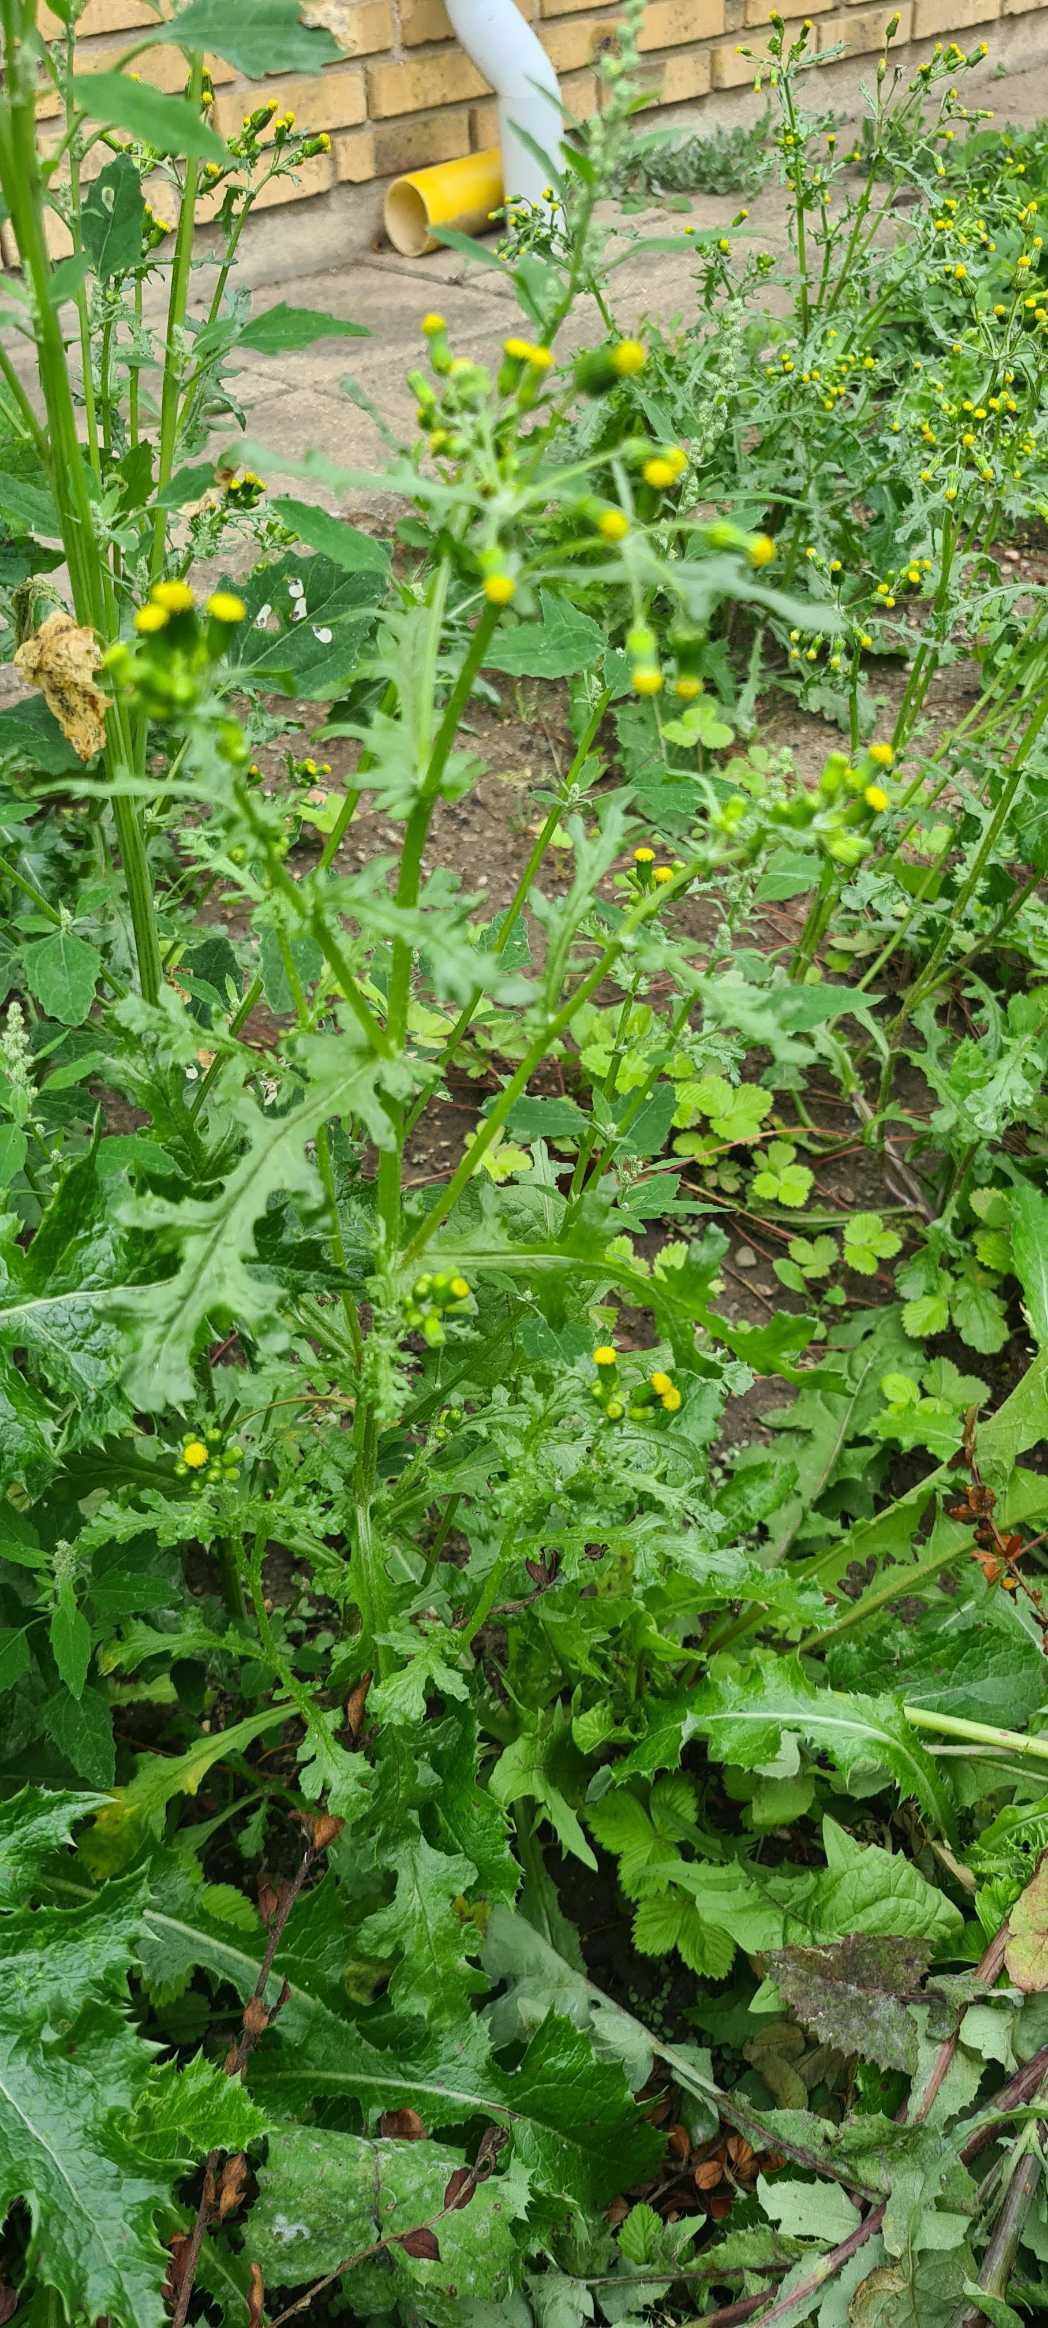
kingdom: Plantae
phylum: Tracheophyta
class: Magnoliopsida
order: Asterales
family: Asteraceae
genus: Senecio
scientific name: Senecio vulgaris
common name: Almindelig brandbæger
